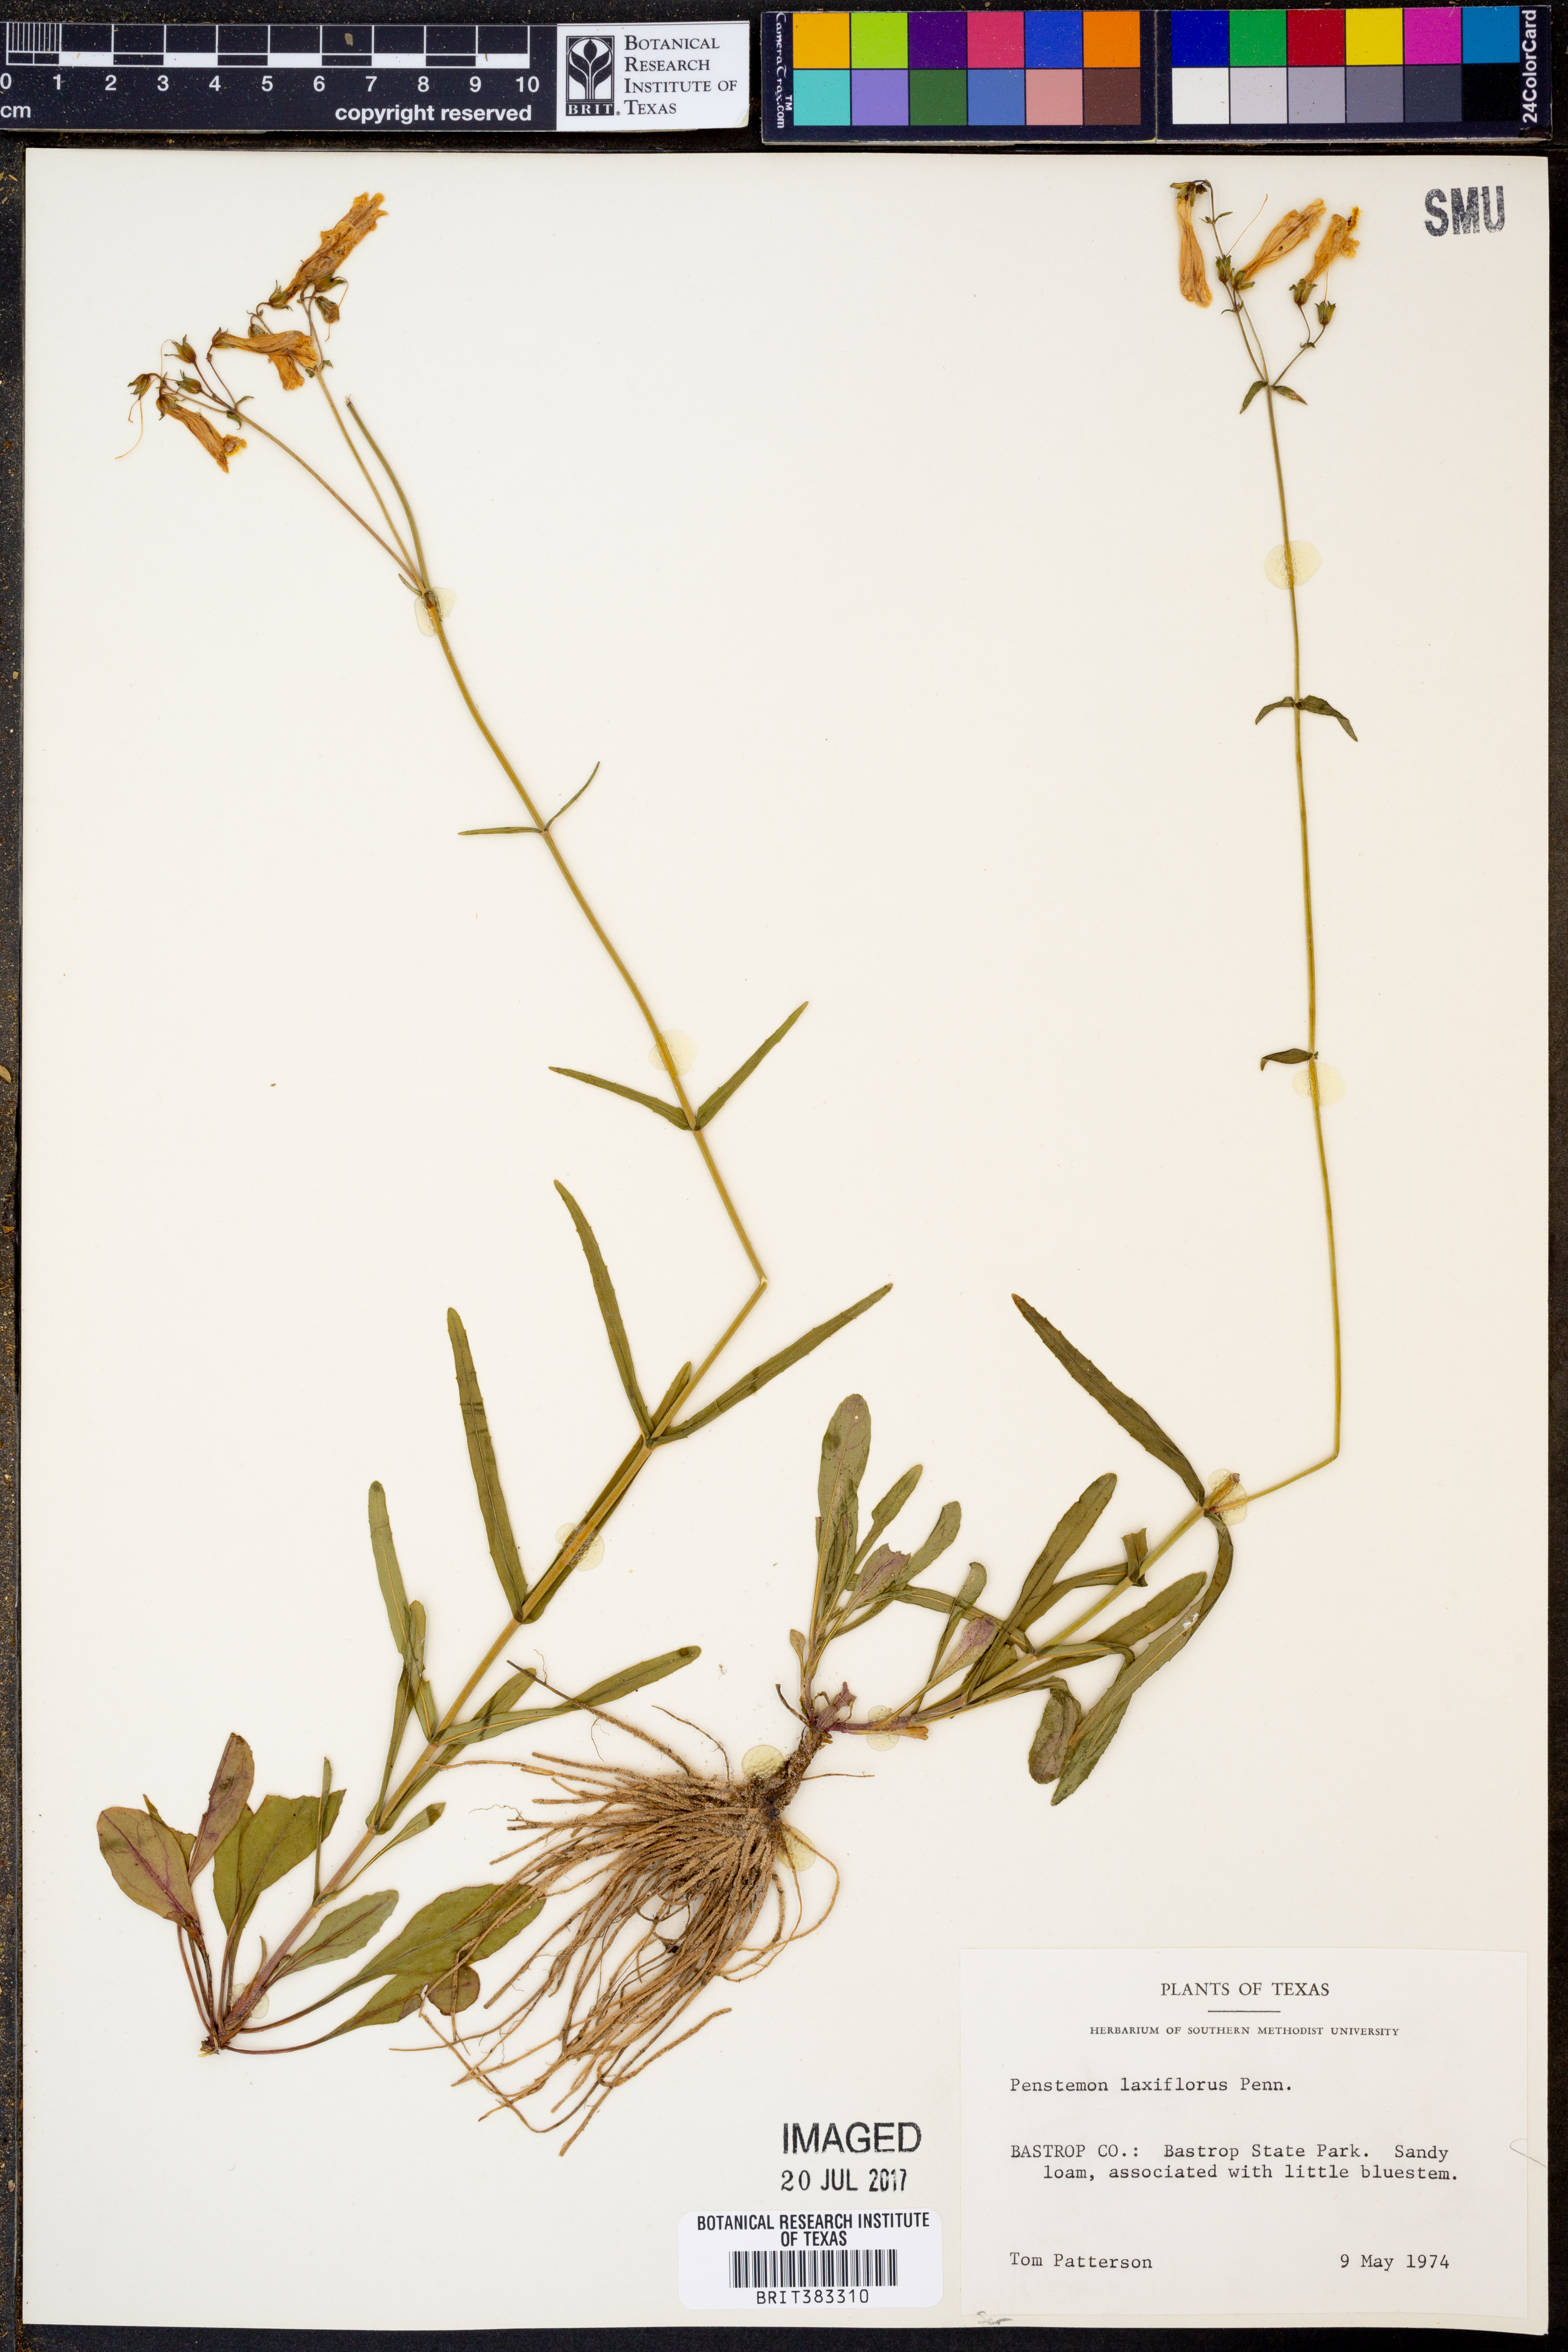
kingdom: Plantae
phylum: Tracheophyta
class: Magnoliopsida
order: Lamiales
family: Plantaginaceae
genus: Penstemon
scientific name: Penstemon laxiflorus
